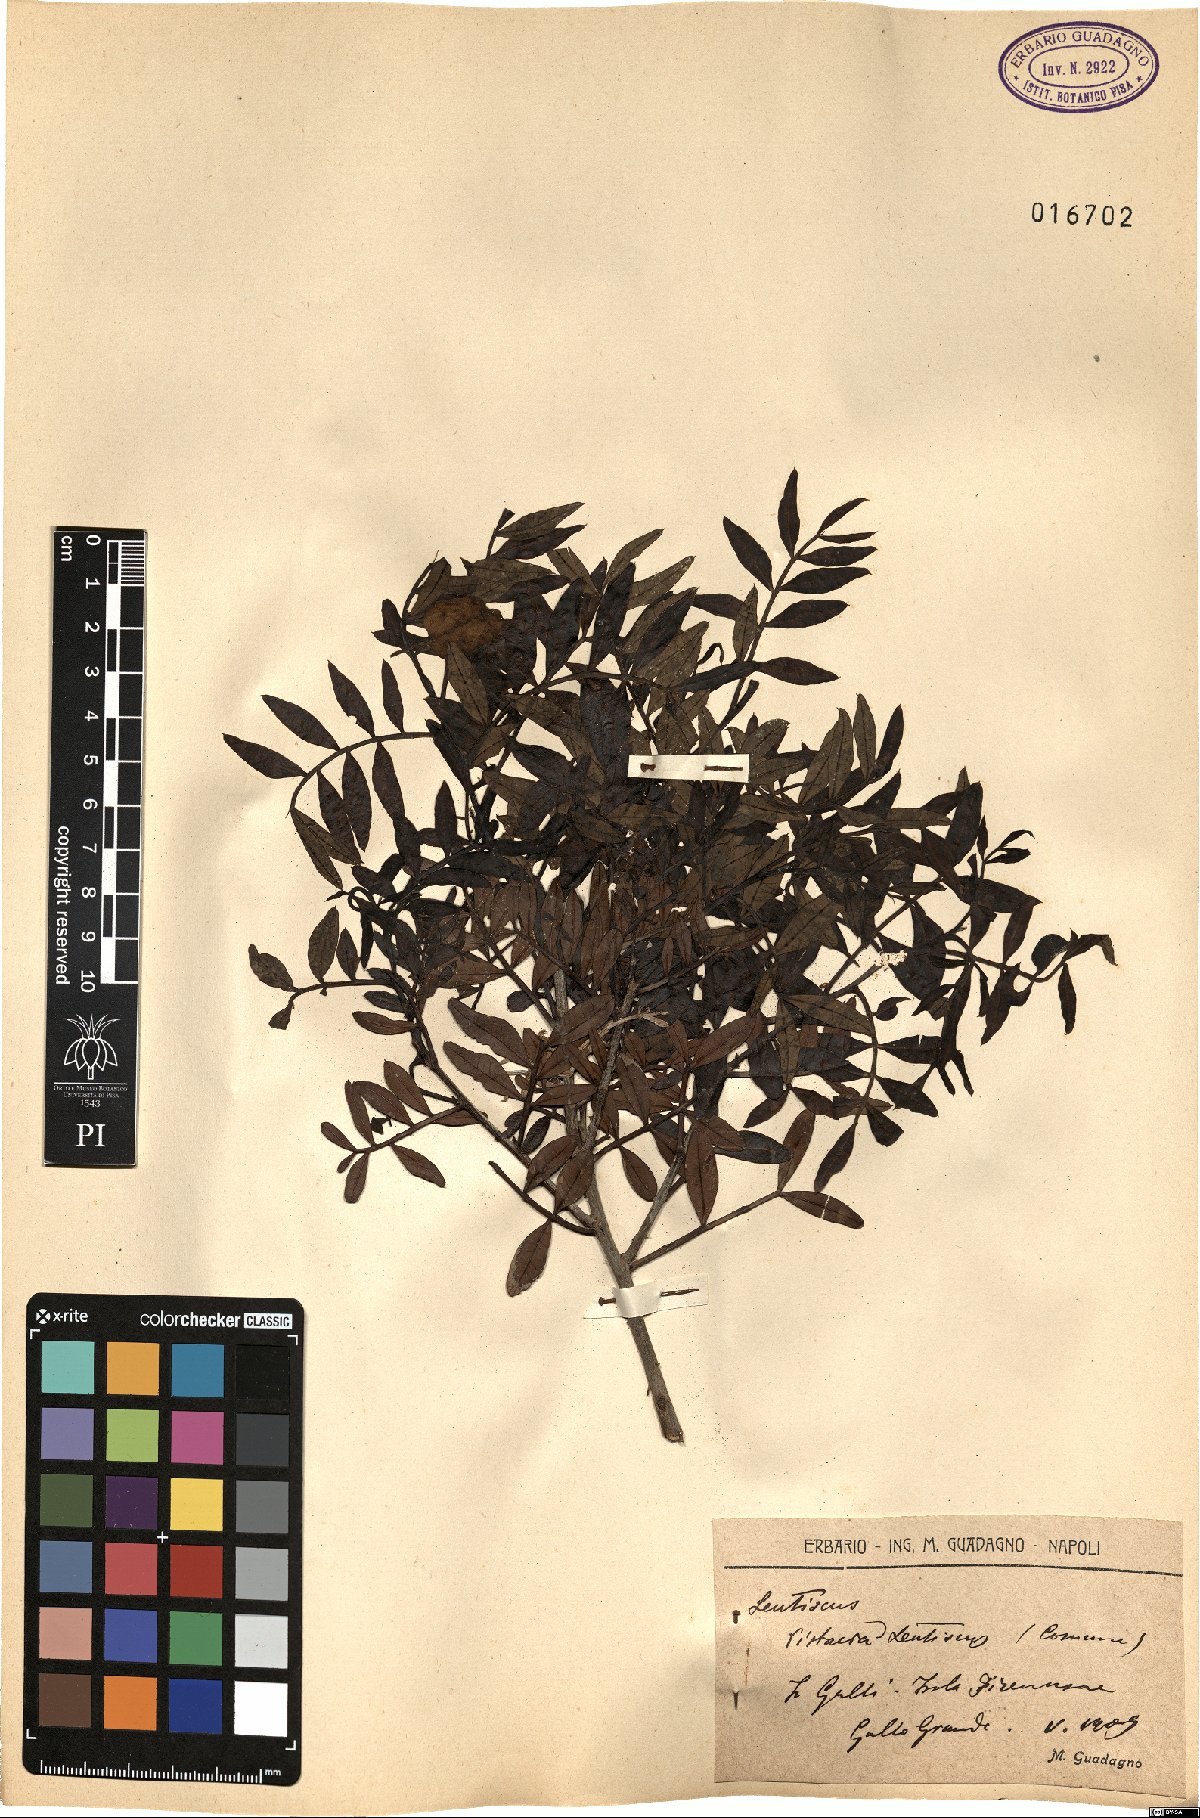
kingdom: Plantae
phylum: Tracheophyta
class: Magnoliopsida
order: Sapindales
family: Anacardiaceae
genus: Pistacia
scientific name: Pistacia lentiscus
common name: Lentisk
